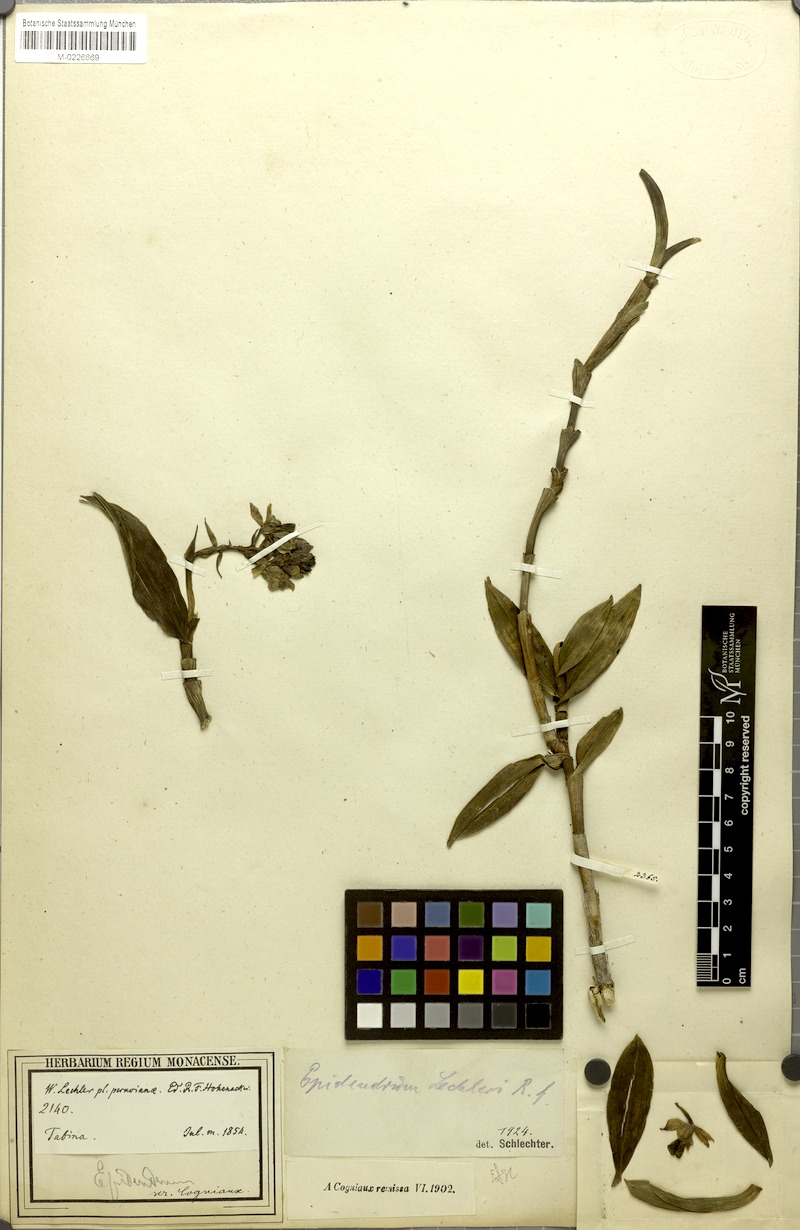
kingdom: Plantae
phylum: Tracheophyta
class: Liliopsida
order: Asparagales
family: Orchidaceae
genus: Epidendrum
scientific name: Epidendrum lechleri
